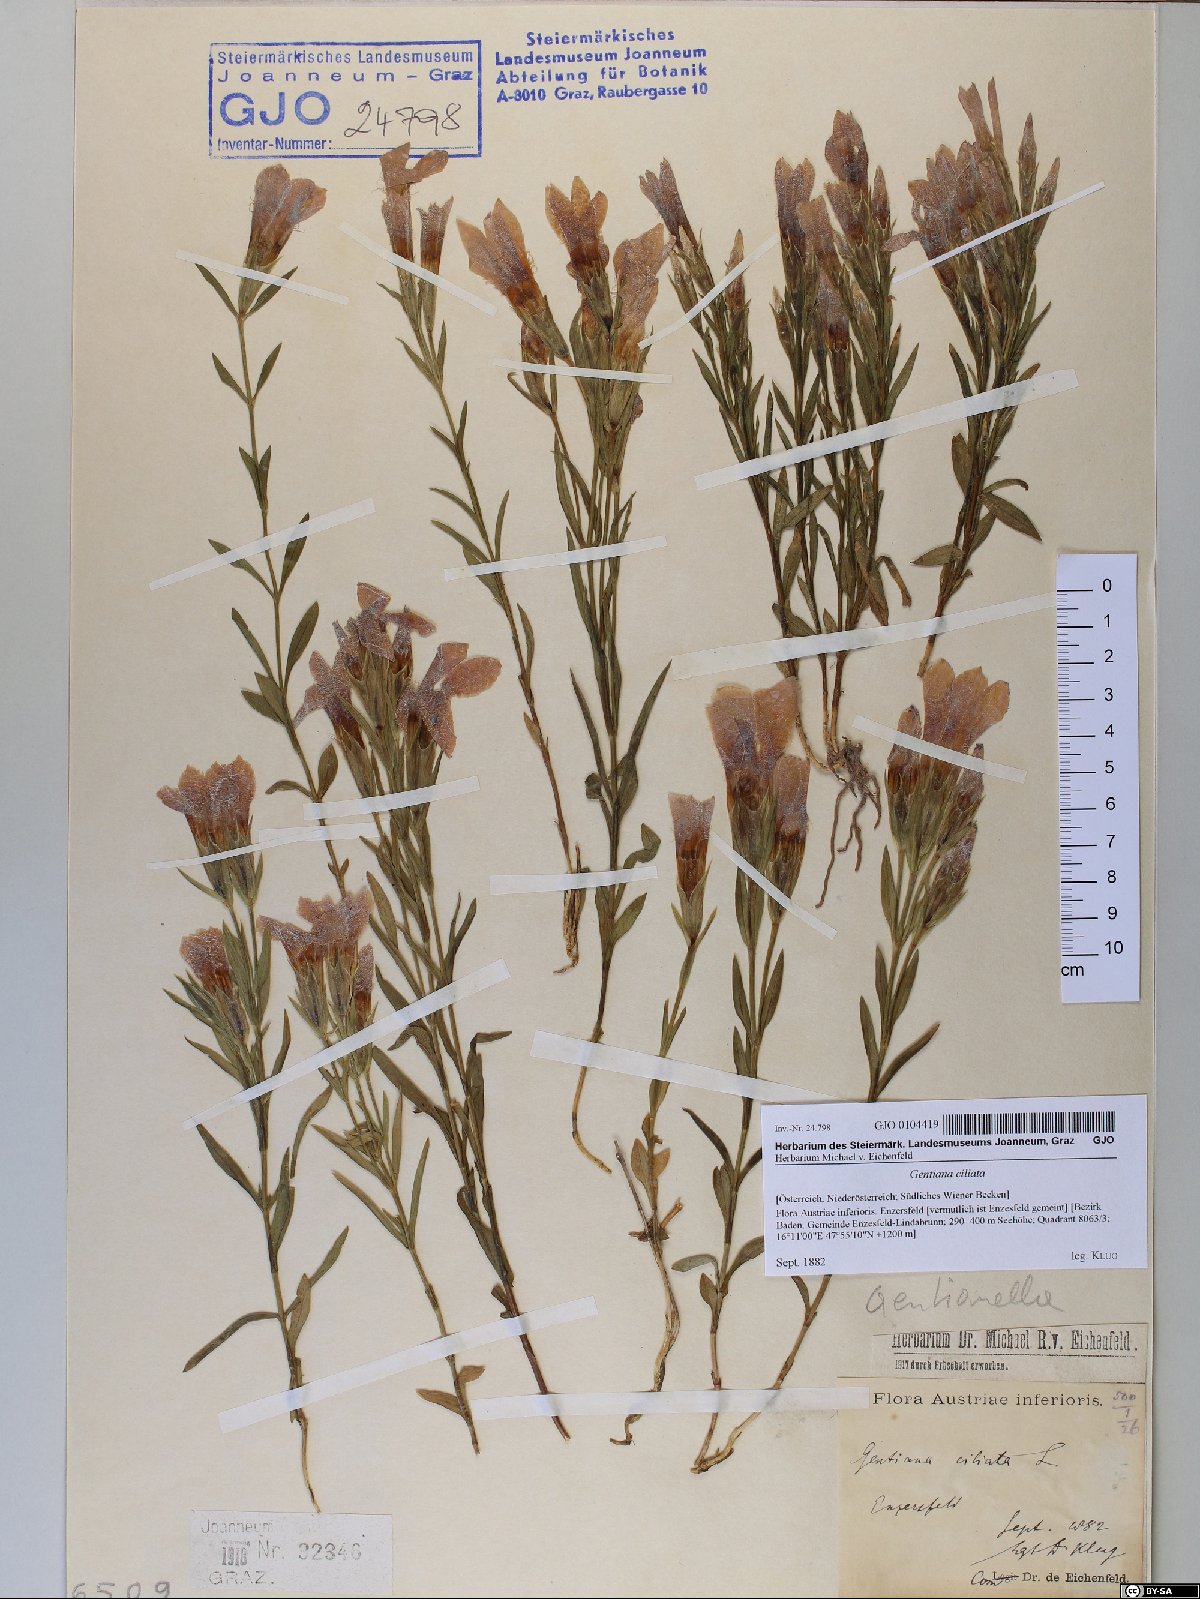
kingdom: Plantae
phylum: Tracheophyta
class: Magnoliopsida
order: Gentianales
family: Gentianaceae
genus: Gentianopsis
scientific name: Gentianopsis ciliata
